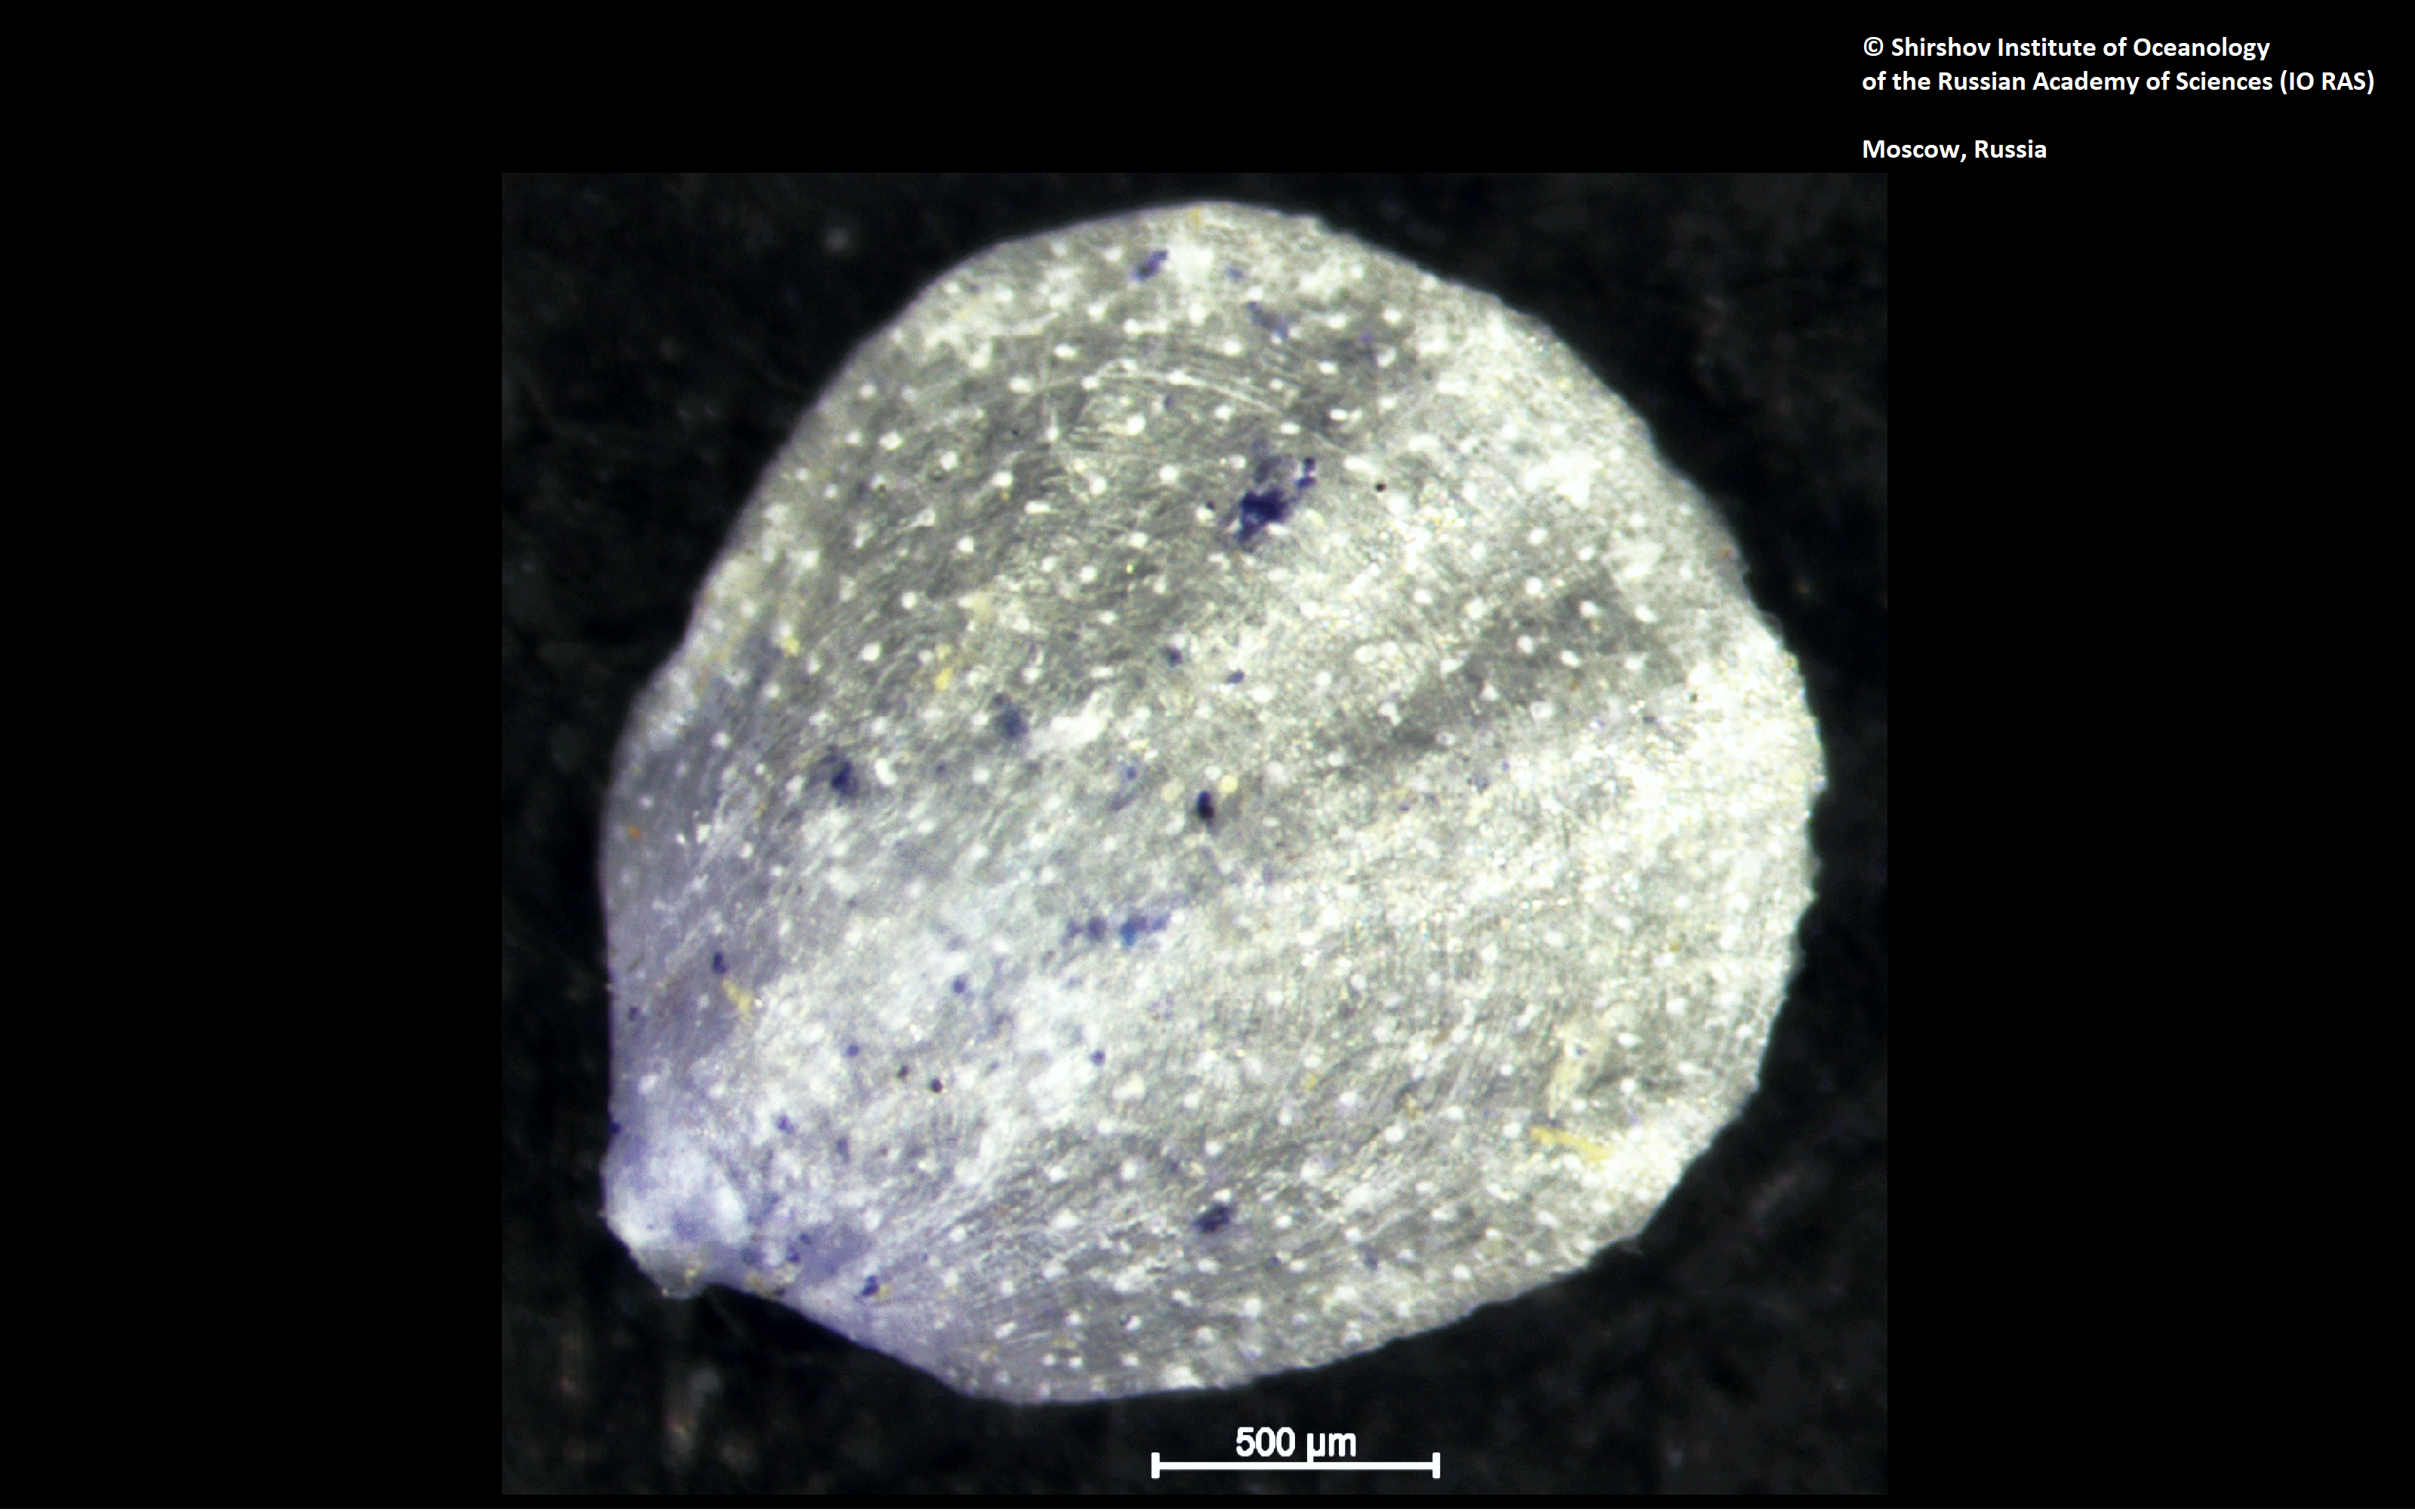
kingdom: Animalia
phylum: Brachiopoda
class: Rhynchonellata
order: Terebratulida
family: Chlidonophoridae
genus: Nanacalathis
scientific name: Nanacalathis atlantica
